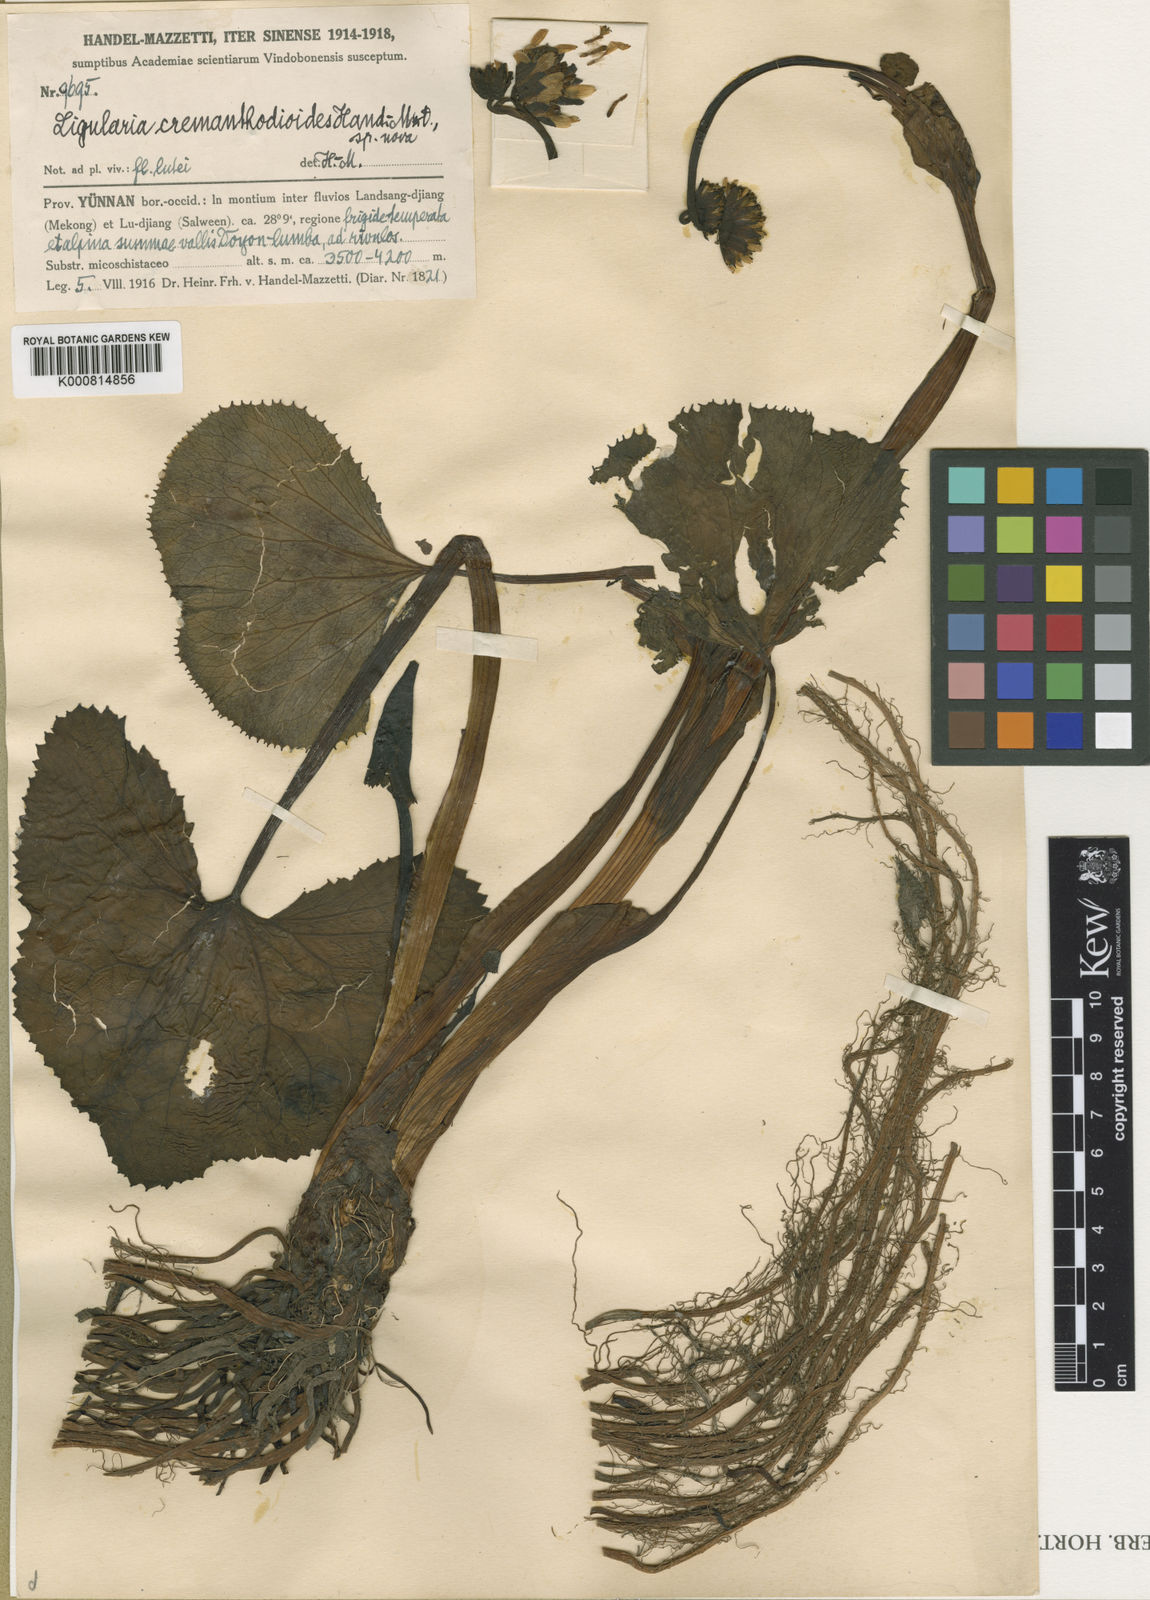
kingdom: Plantae
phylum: Tracheophyta
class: Magnoliopsida
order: Asterales
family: Asteraceae
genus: Ligularia
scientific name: Ligularia cremanthodioides
